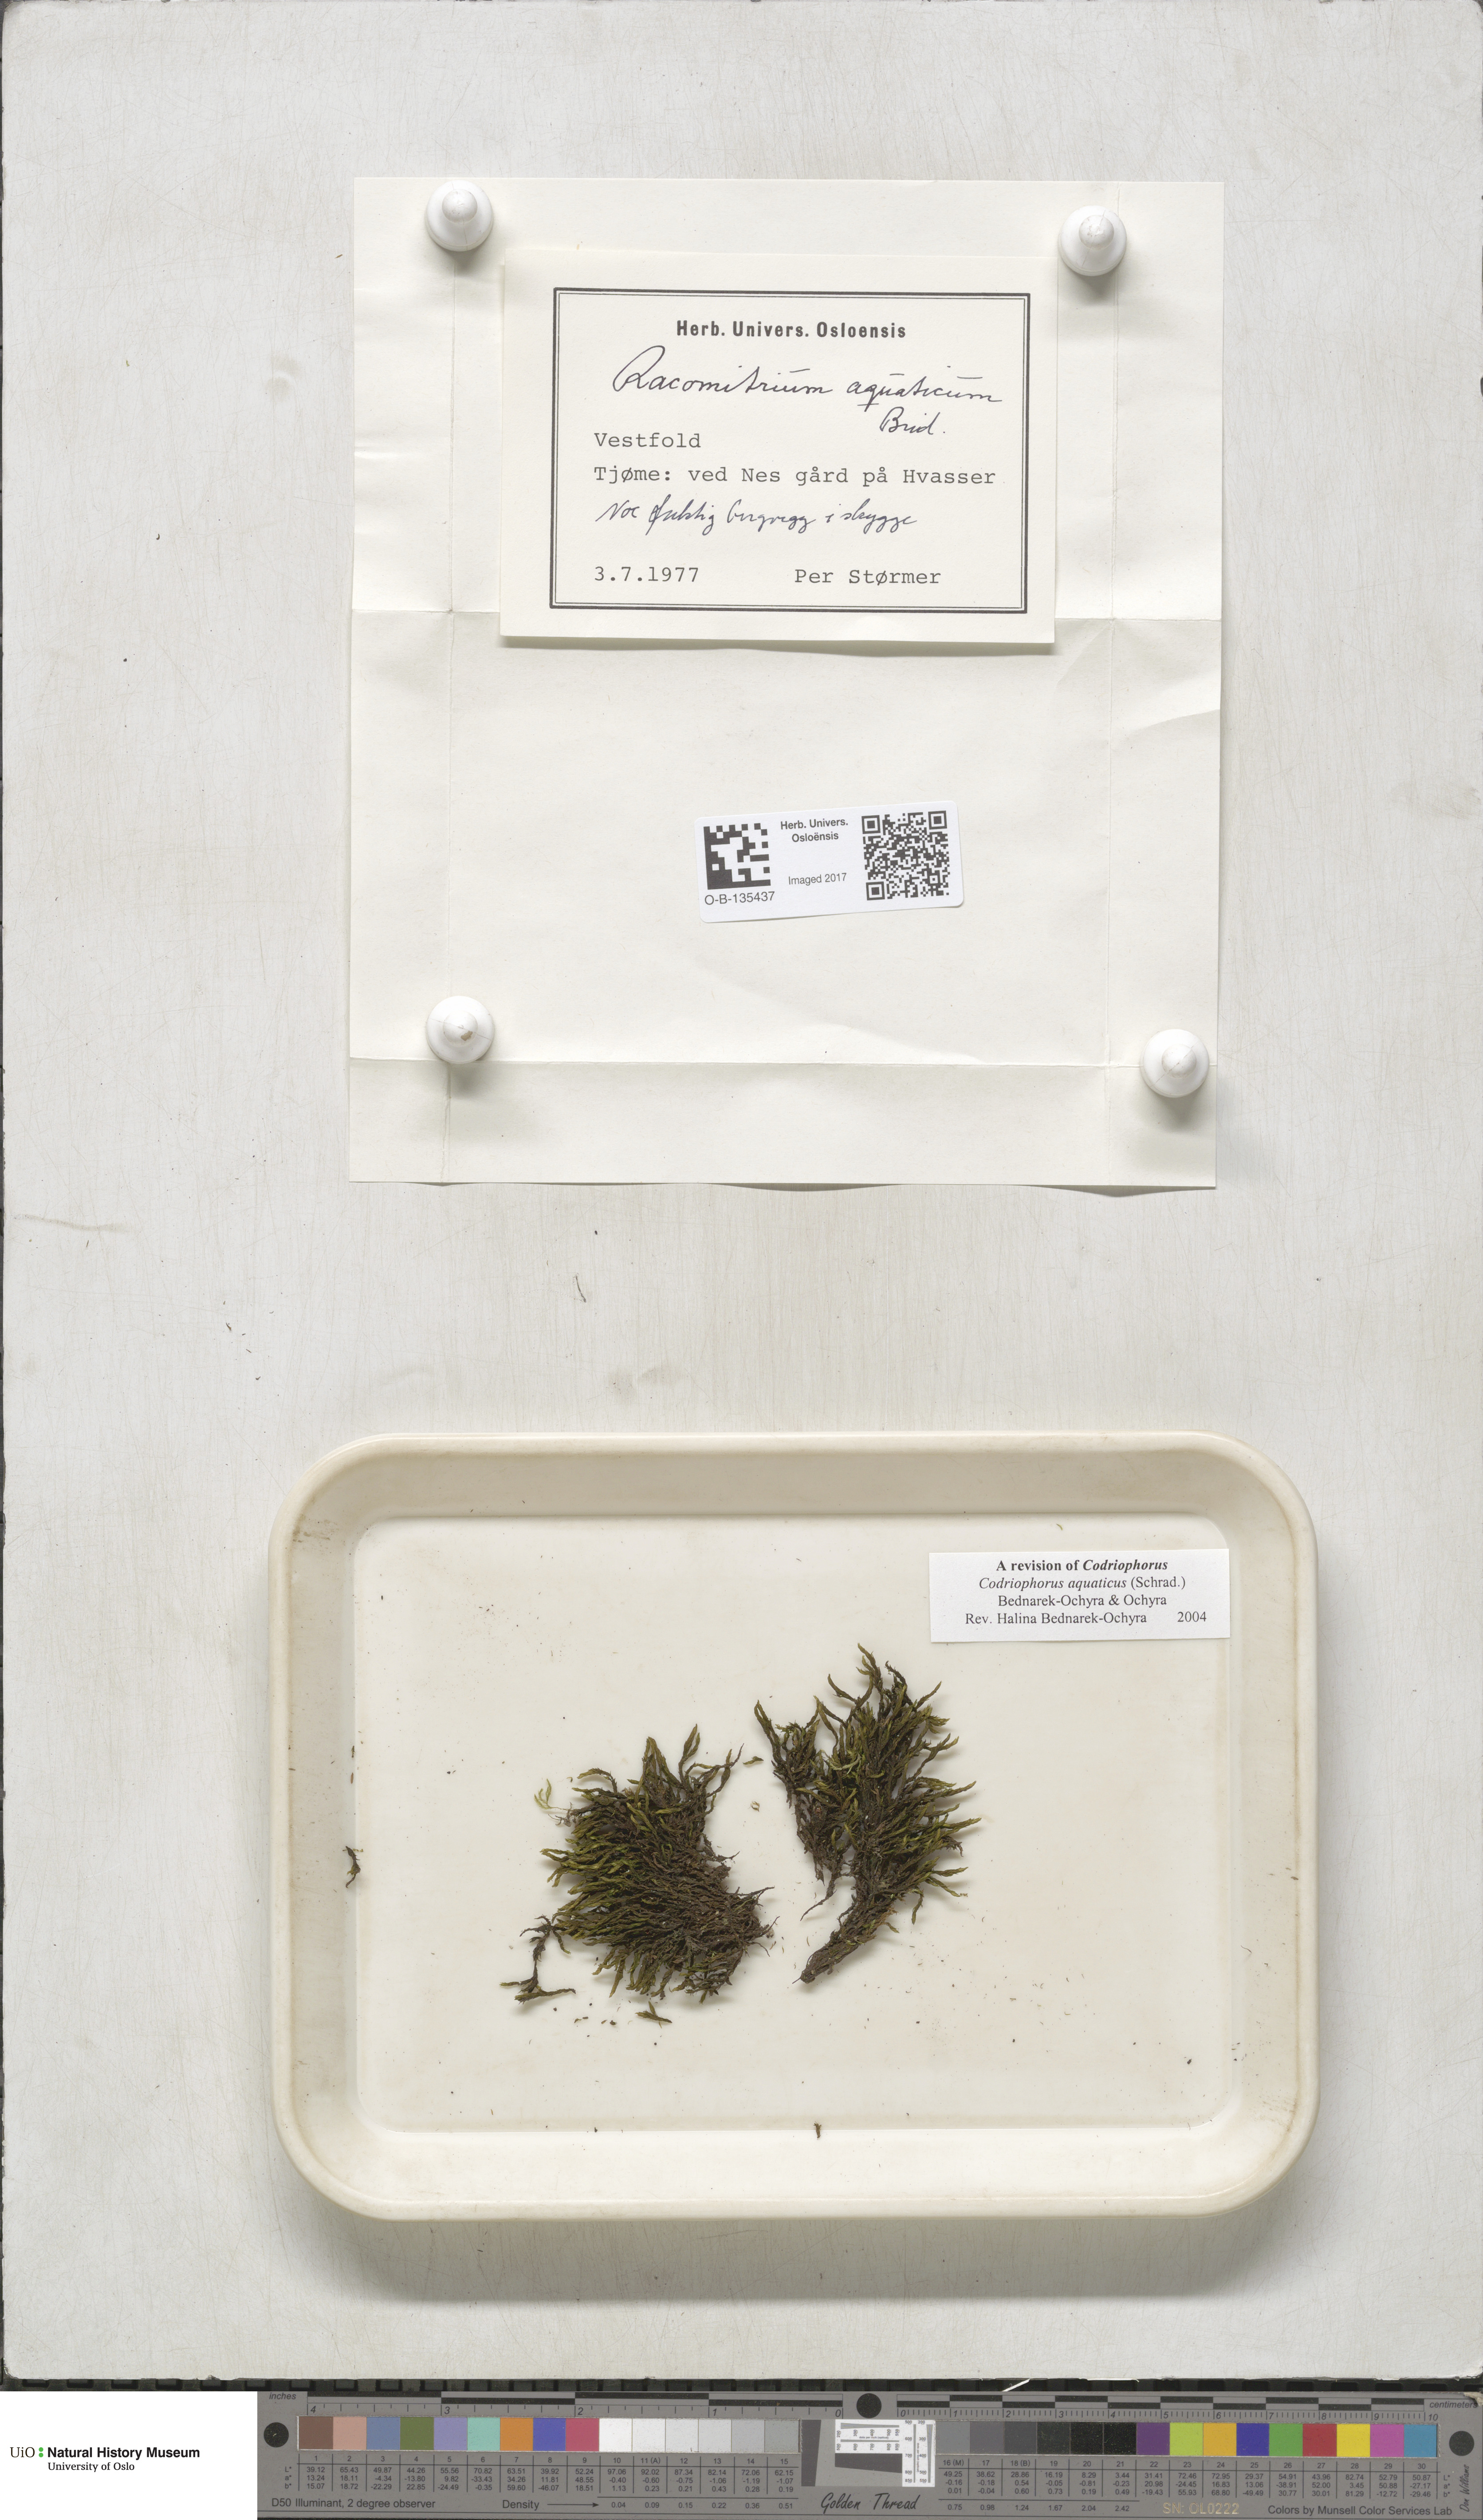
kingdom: Plantae
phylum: Bryophyta
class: Bryopsida
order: Grimmiales
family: Grimmiaceae
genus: Codriophorus
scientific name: Codriophorus aquaticus
